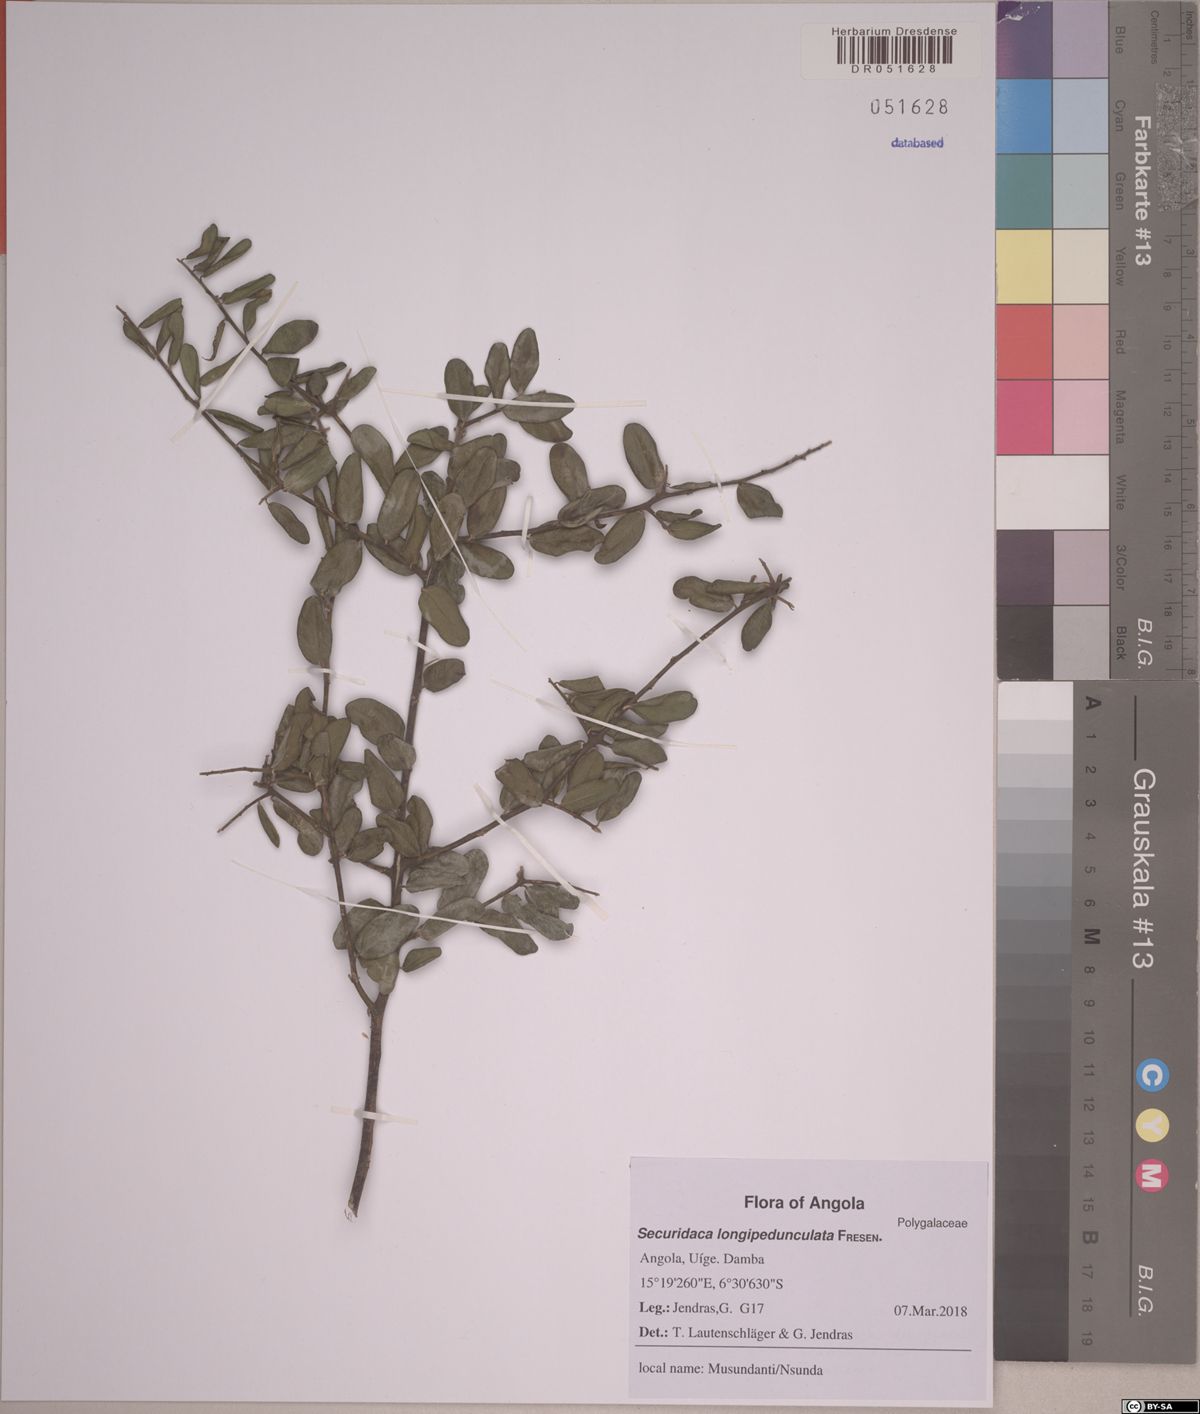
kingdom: Plantae
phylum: Tracheophyta
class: Magnoliopsida
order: Fabales
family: Polygalaceae
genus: Securidaca
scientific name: Securidaca longepedunculata
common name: Violet tree
